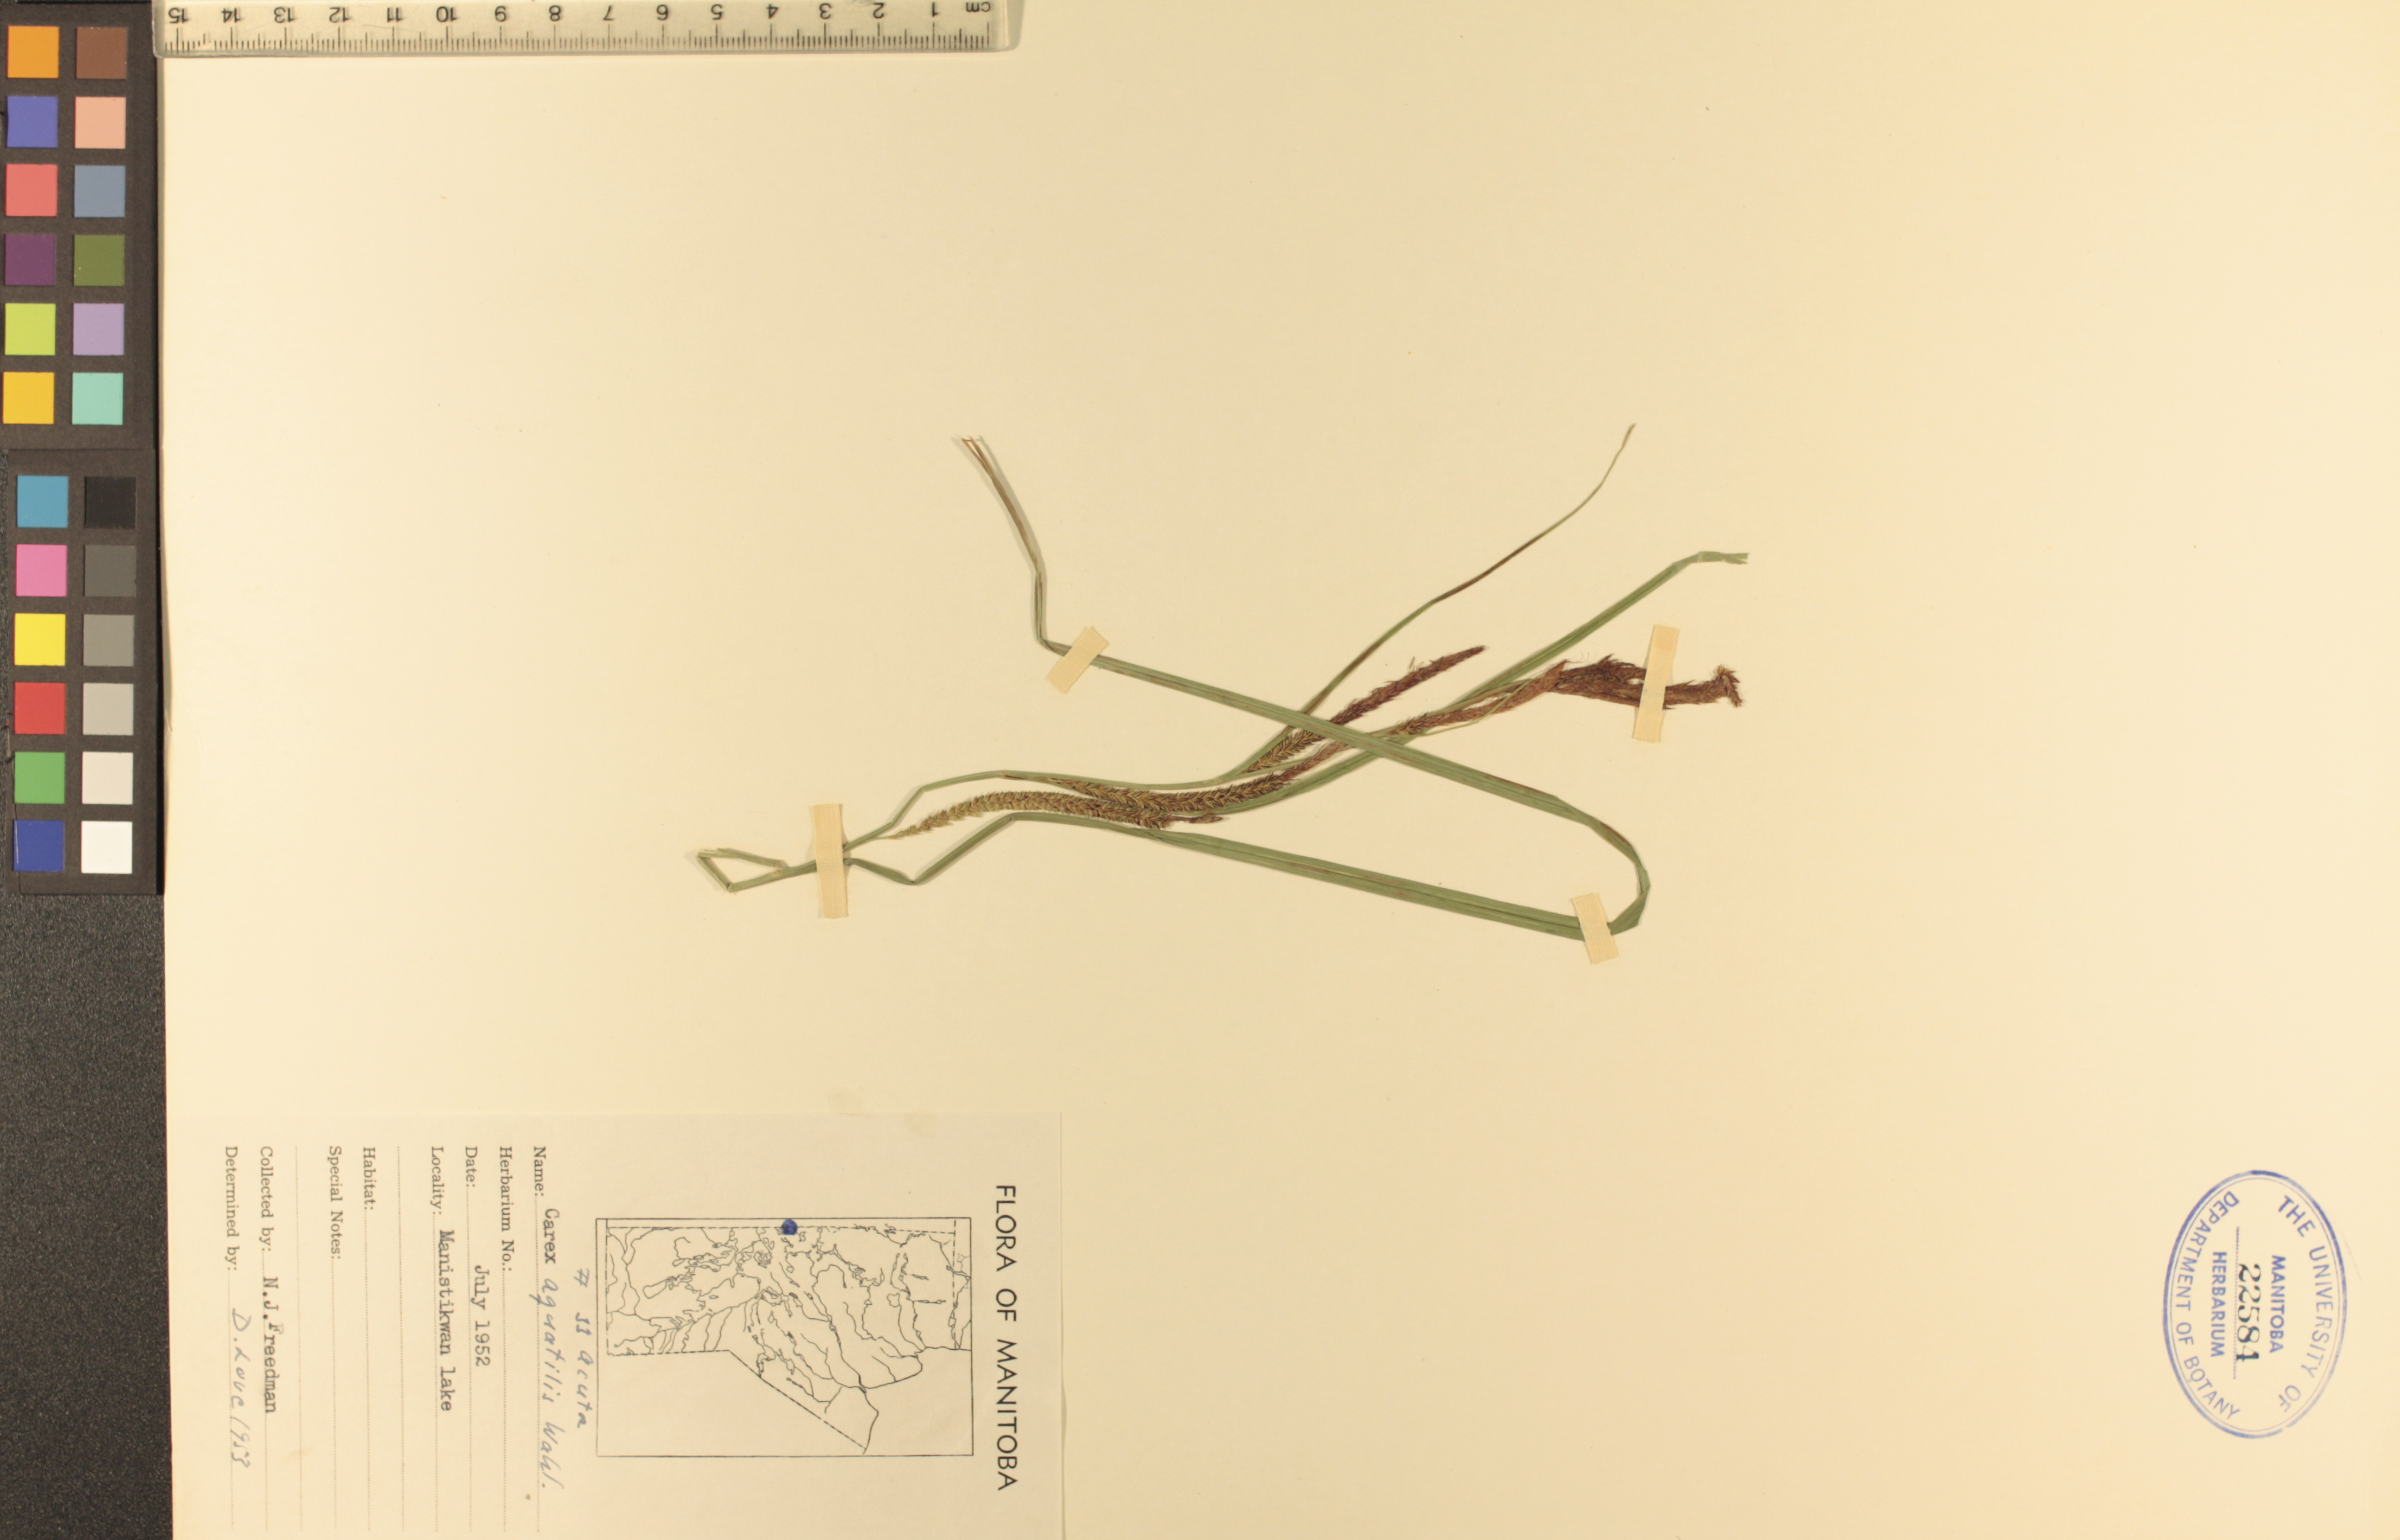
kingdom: Plantae
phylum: Tracheophyta
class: Liliopsida
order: Poales
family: Cyperaceae
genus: Carex
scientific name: Carex aquatilis
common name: Water sedge
